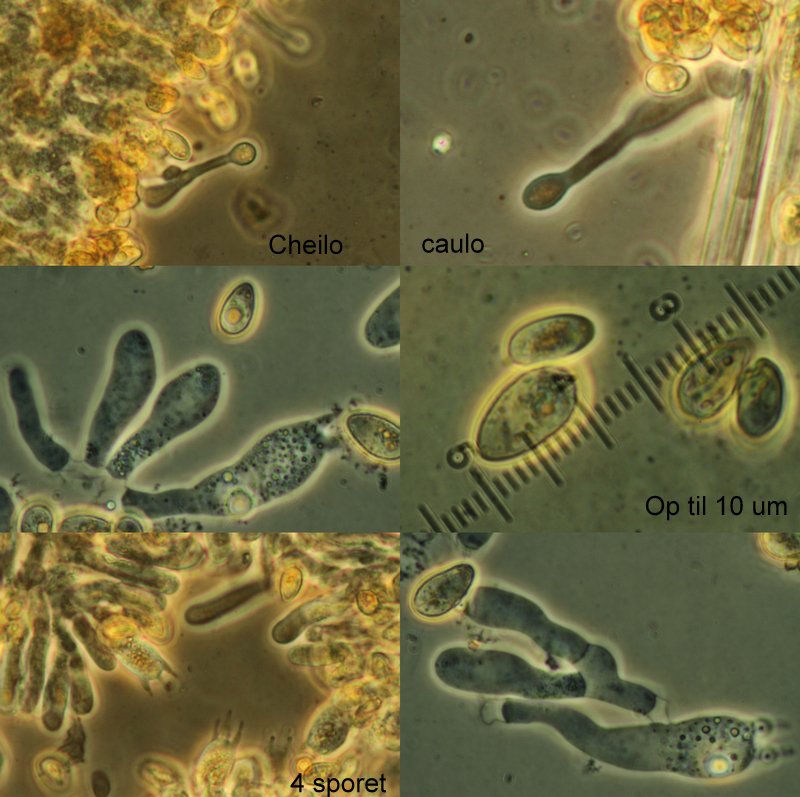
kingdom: Fungi
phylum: Basidiomycota
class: Agaricomycetes
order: Agaricales
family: Hymenogastraceae
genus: Galerina
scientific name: Galerina graminea
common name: plæne-hjelmhat
